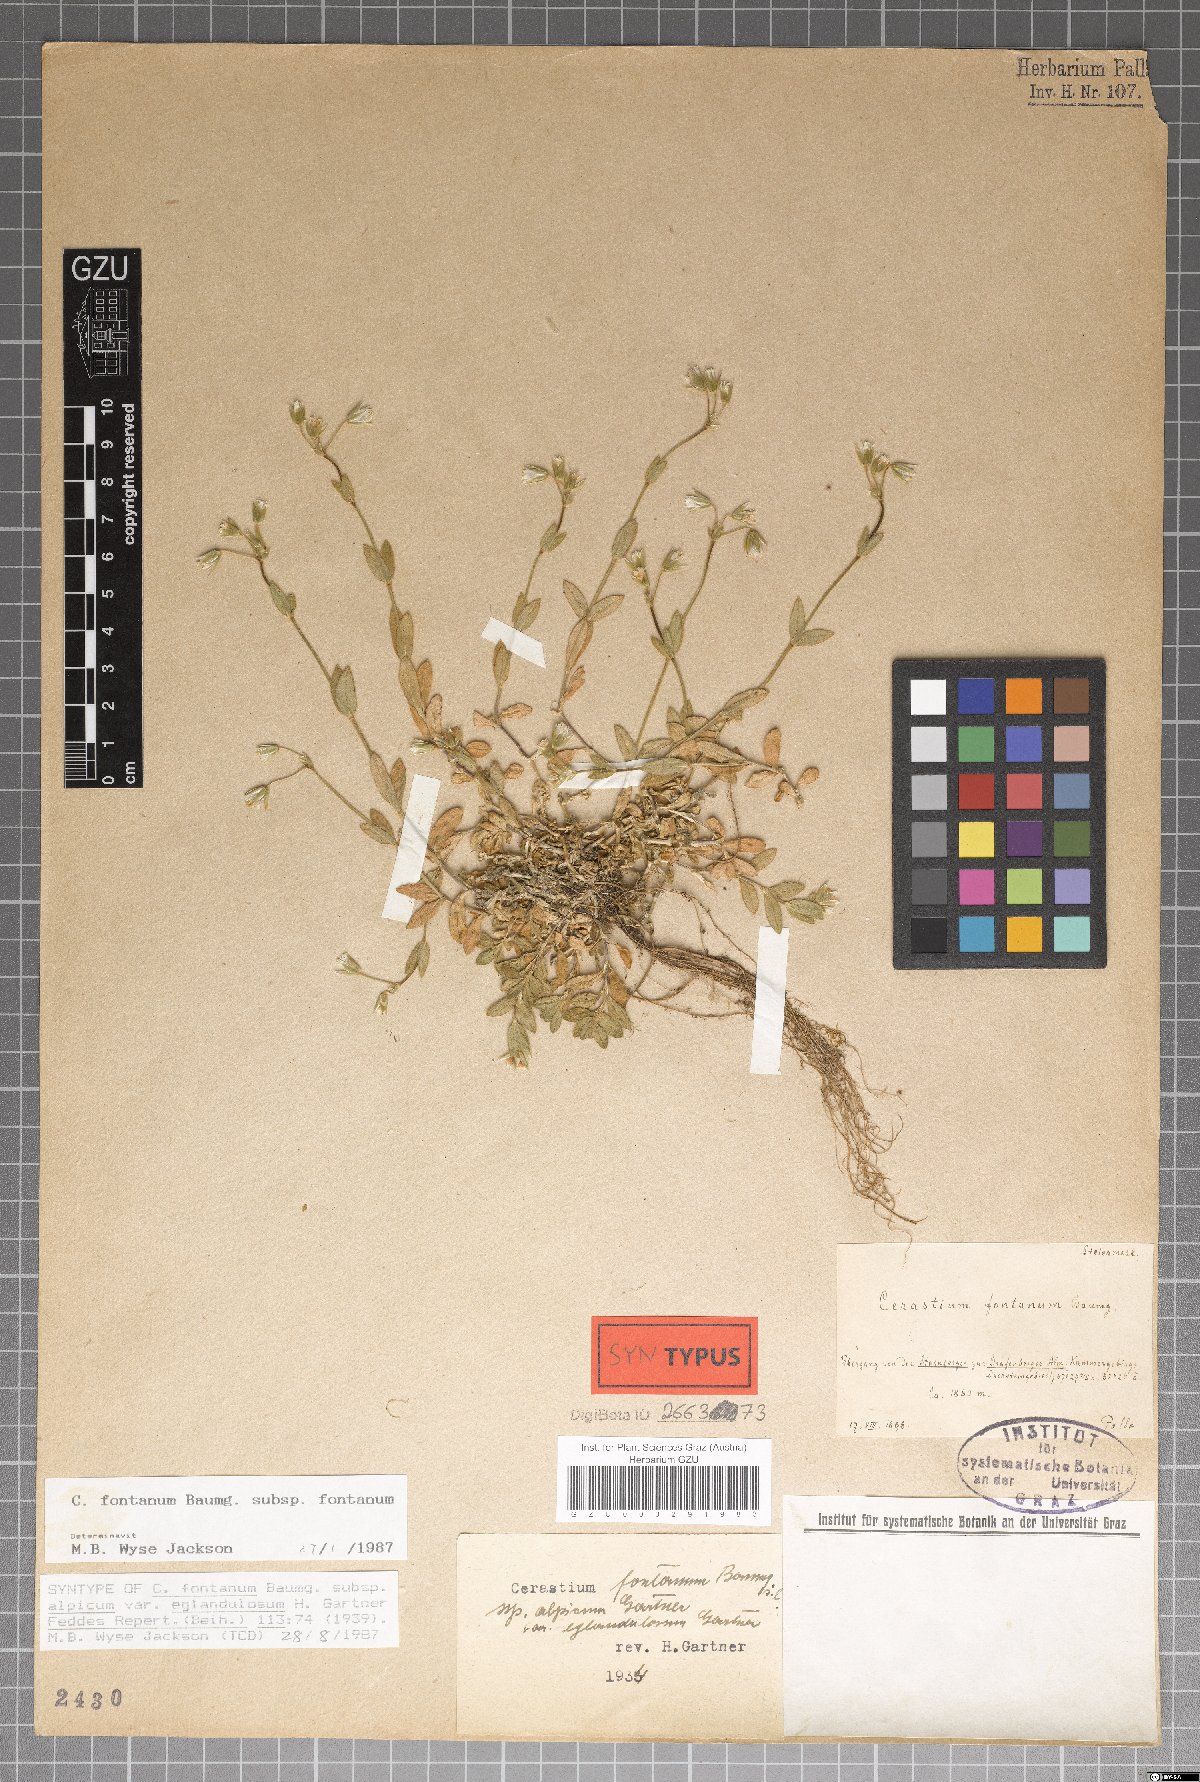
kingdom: Plantae
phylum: Tracheophyta
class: Magnoliopsida
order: Caryophyllales
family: Caryophyllaceae
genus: Cerastium
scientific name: Cerastium holosteoides
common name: Big chickweed
